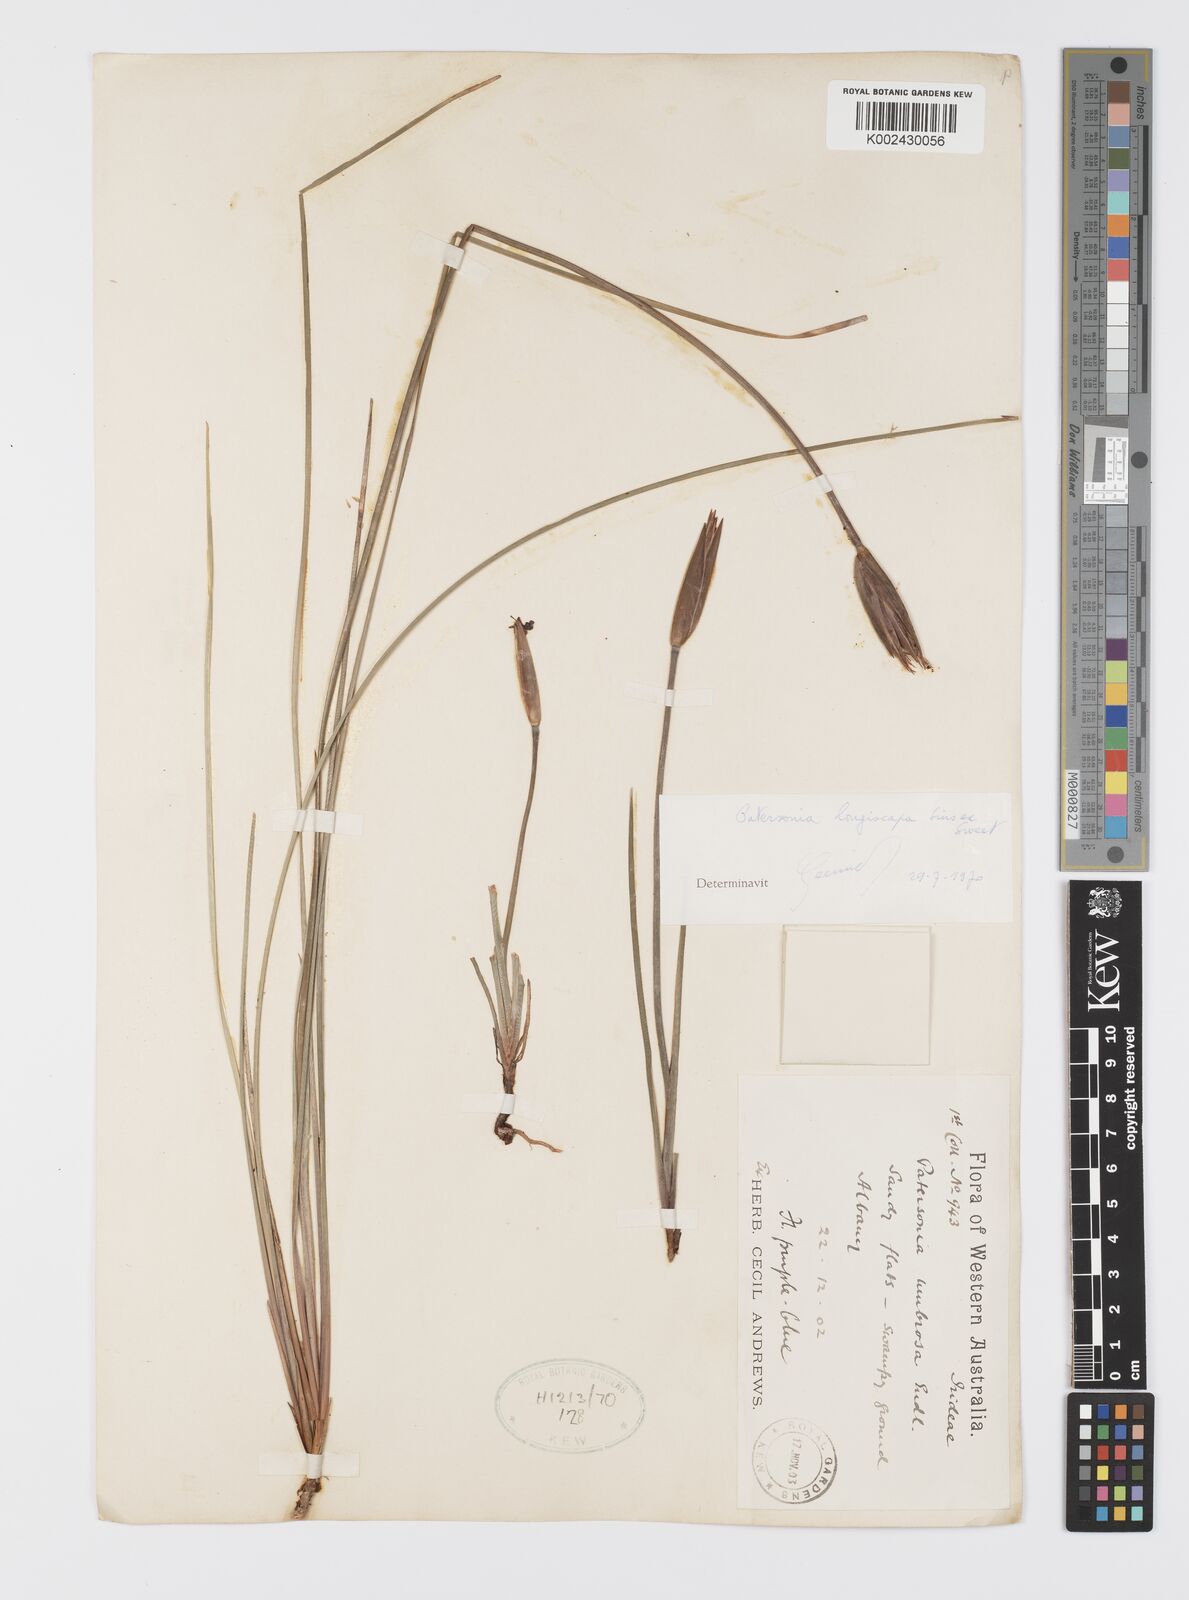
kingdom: Plantae
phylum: Tracheophyta
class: Liliopsida
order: Asparagales
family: Iridaceae
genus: Patersonia
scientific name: Patersonia occidentalis
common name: Long purple-flag
